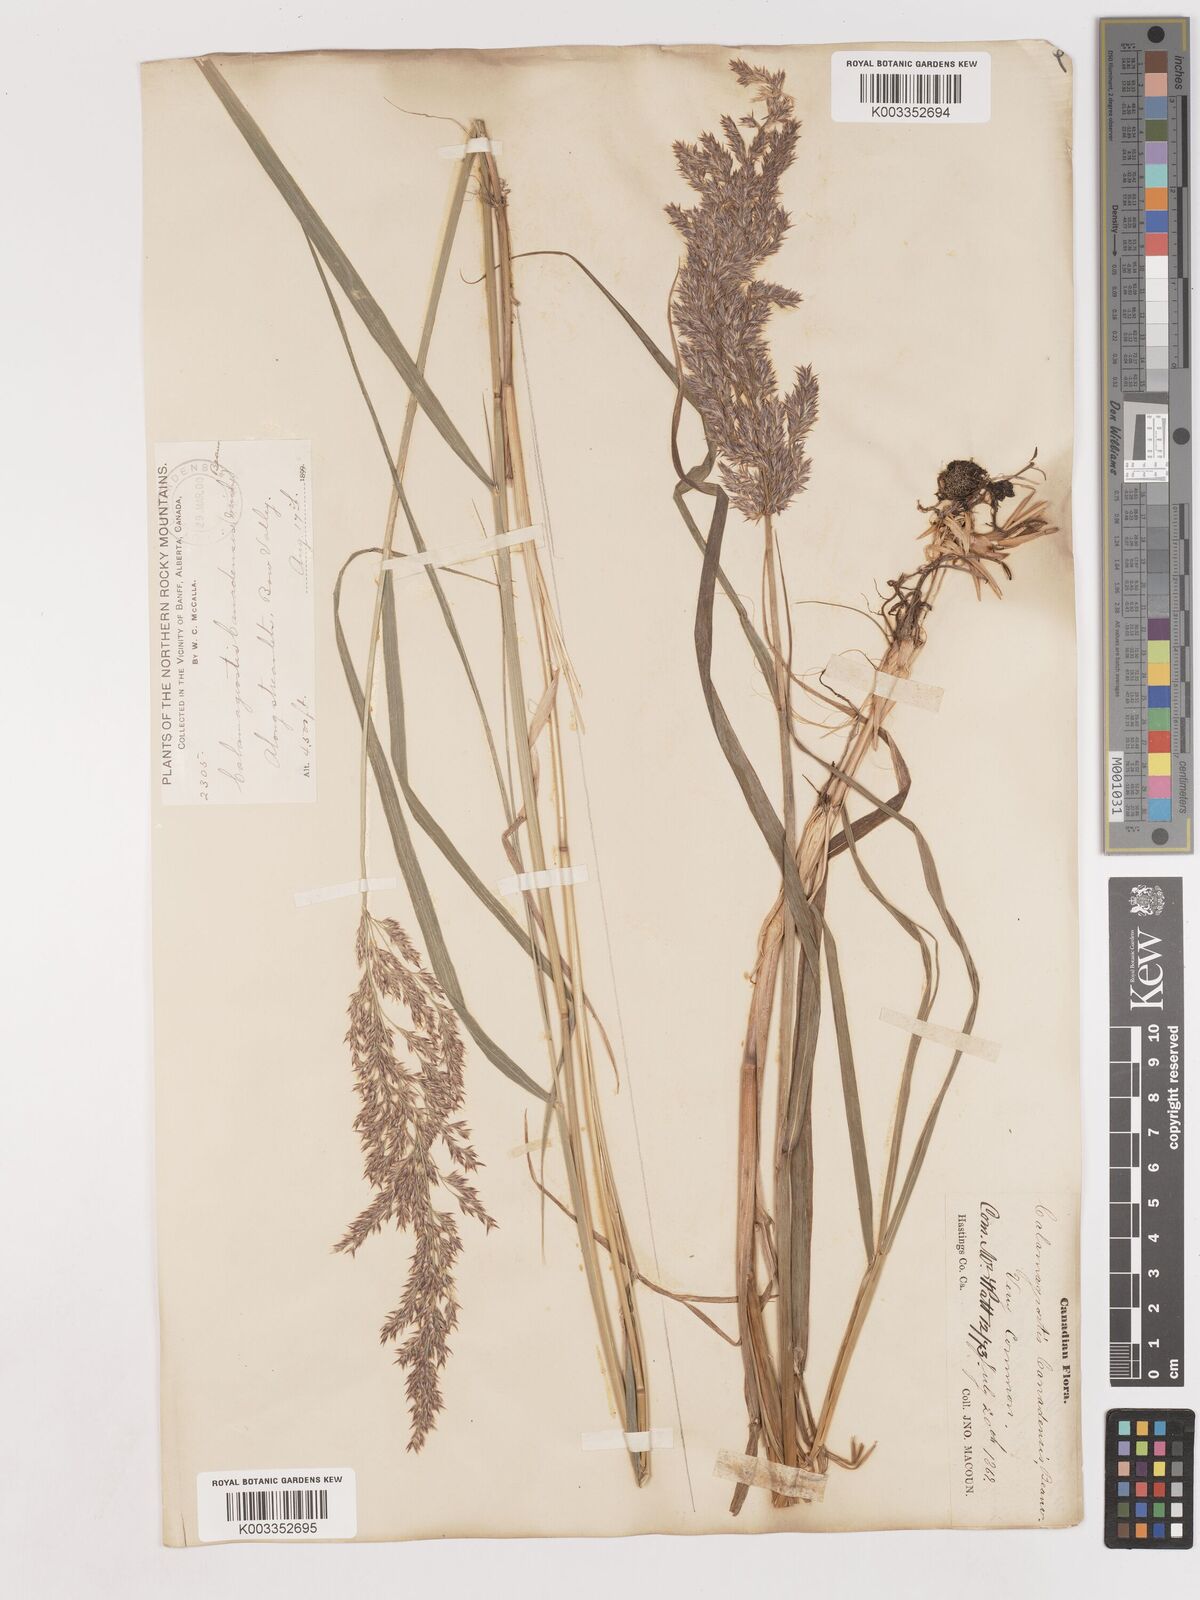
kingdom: Plantae
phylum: Tracheophyta
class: Liliopsida
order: Poales
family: Poaceae
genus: Calamagrostis
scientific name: Calamagrostis canadensis
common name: Canada bluejoint
